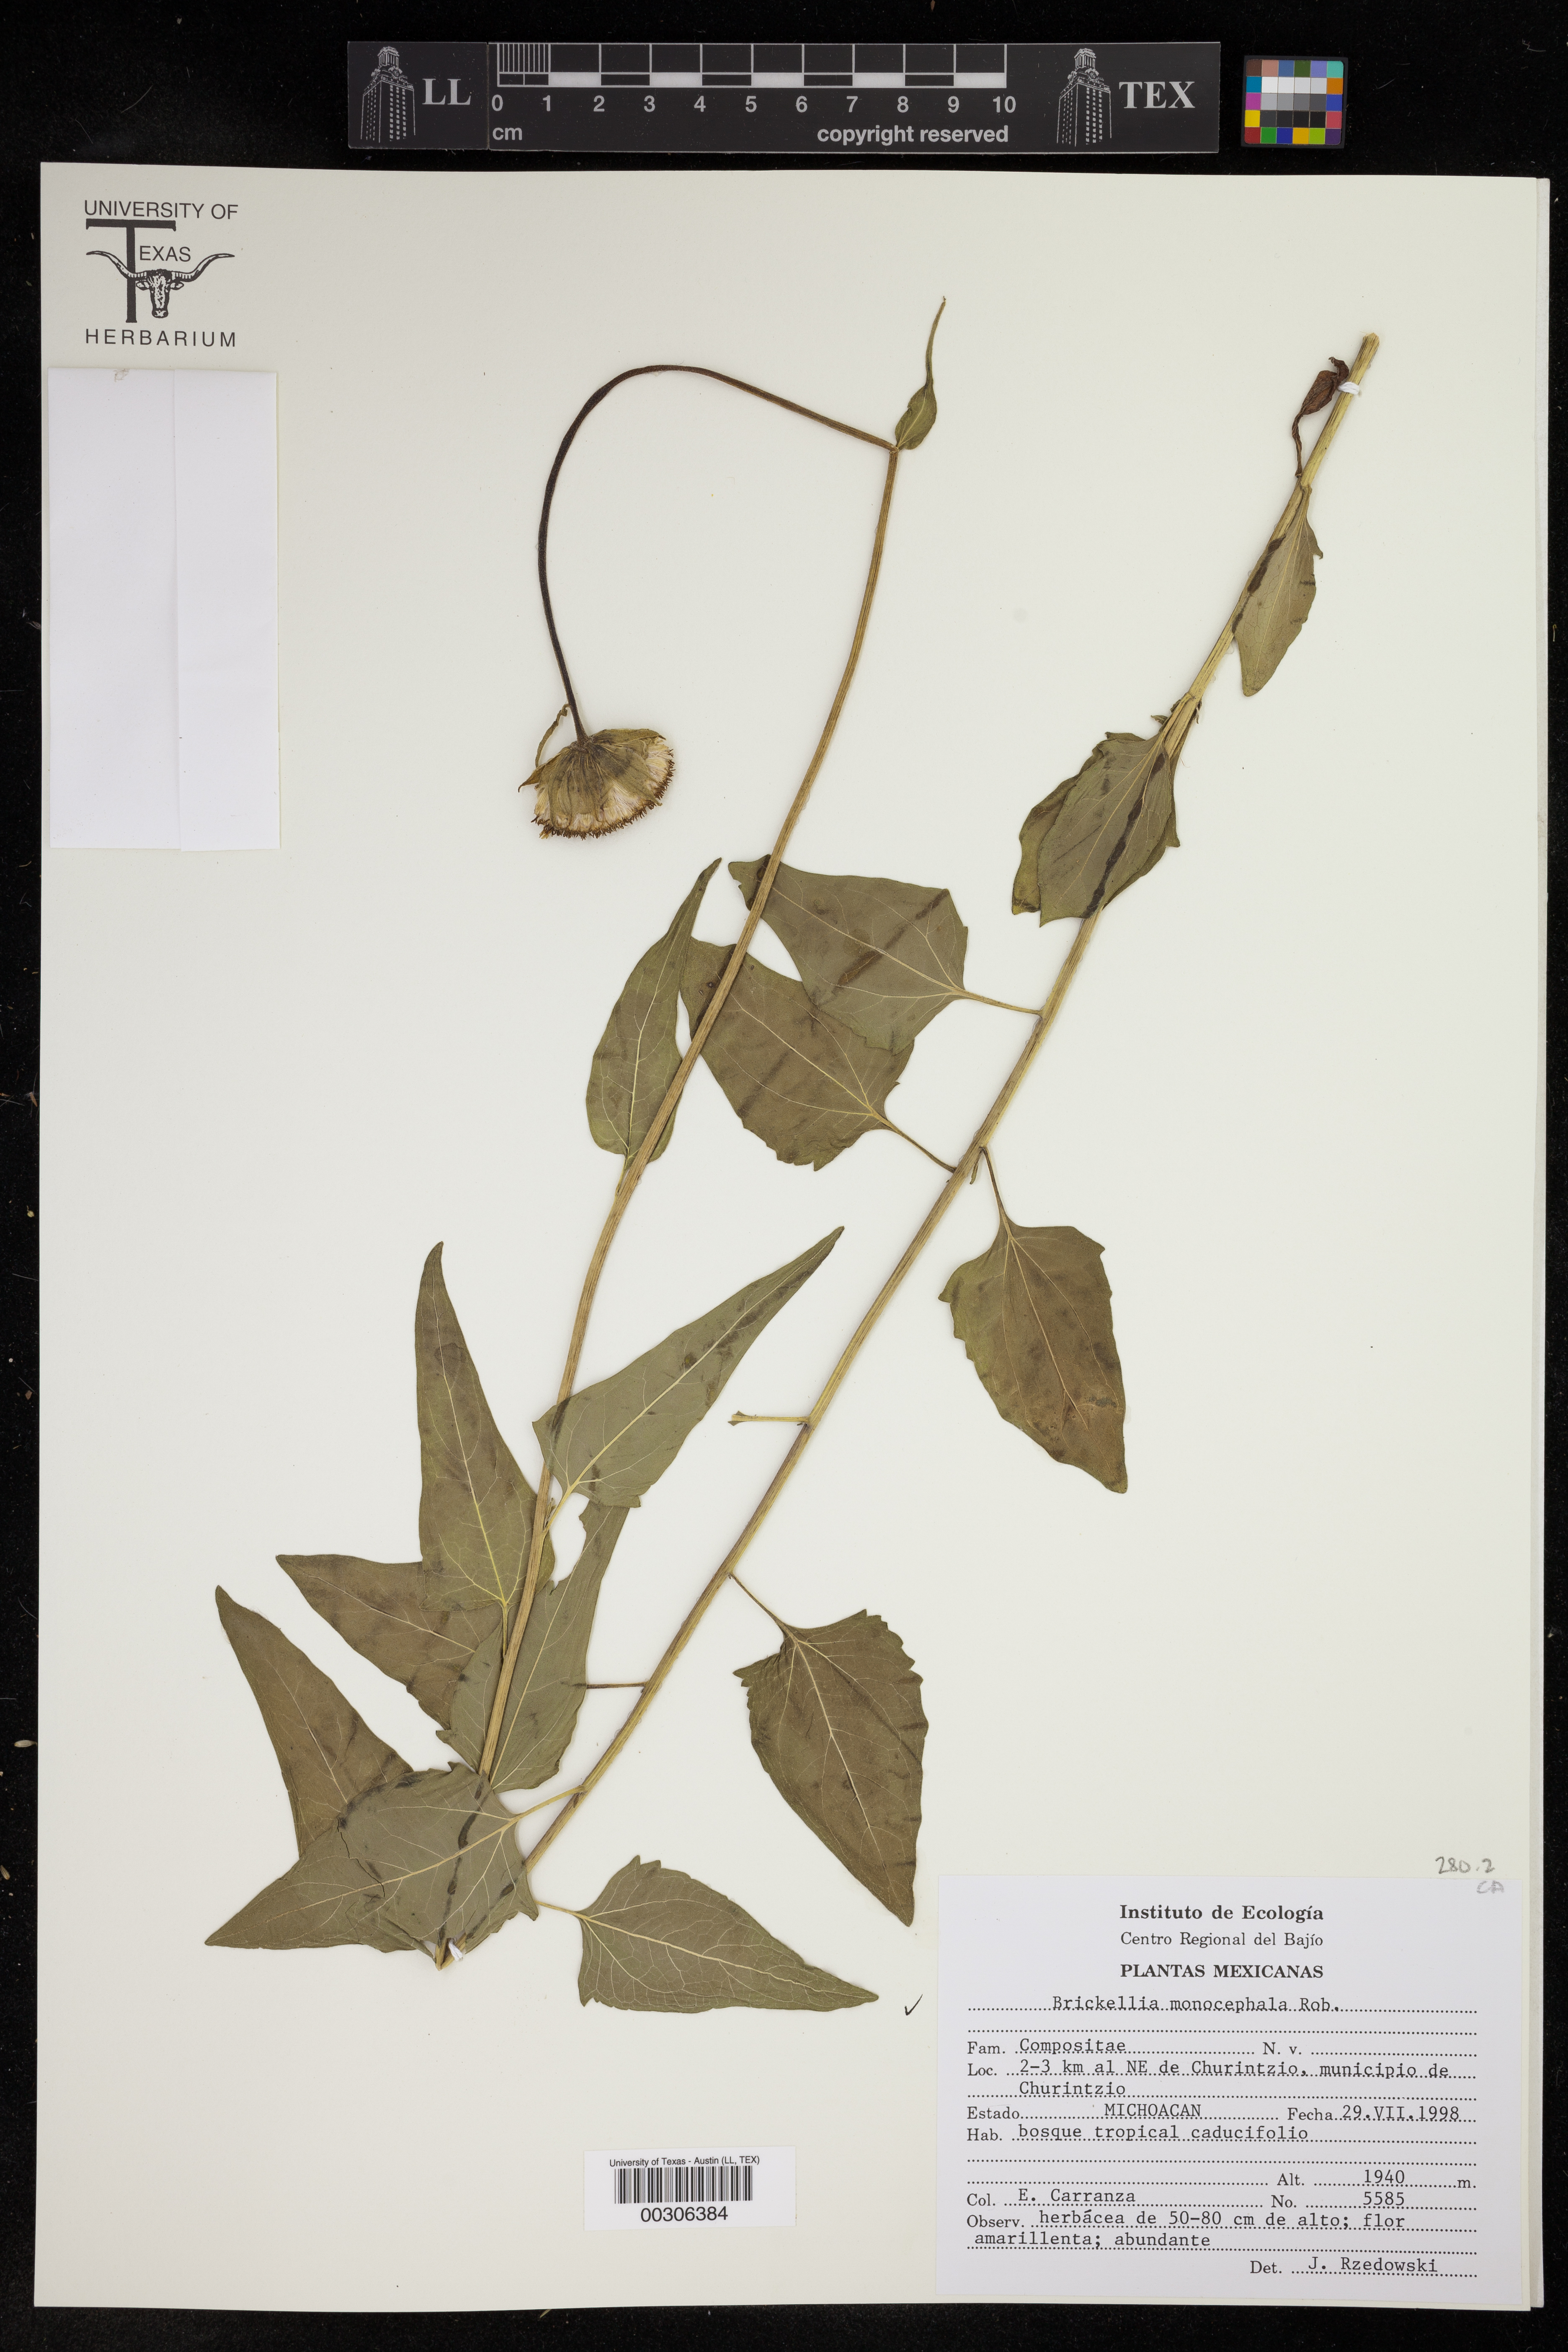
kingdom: Plantae
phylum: Tracheophyta
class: Magnoliopsida
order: Asterales
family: Asteraceae
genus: Brickellia
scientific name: Brickellia monocephala
